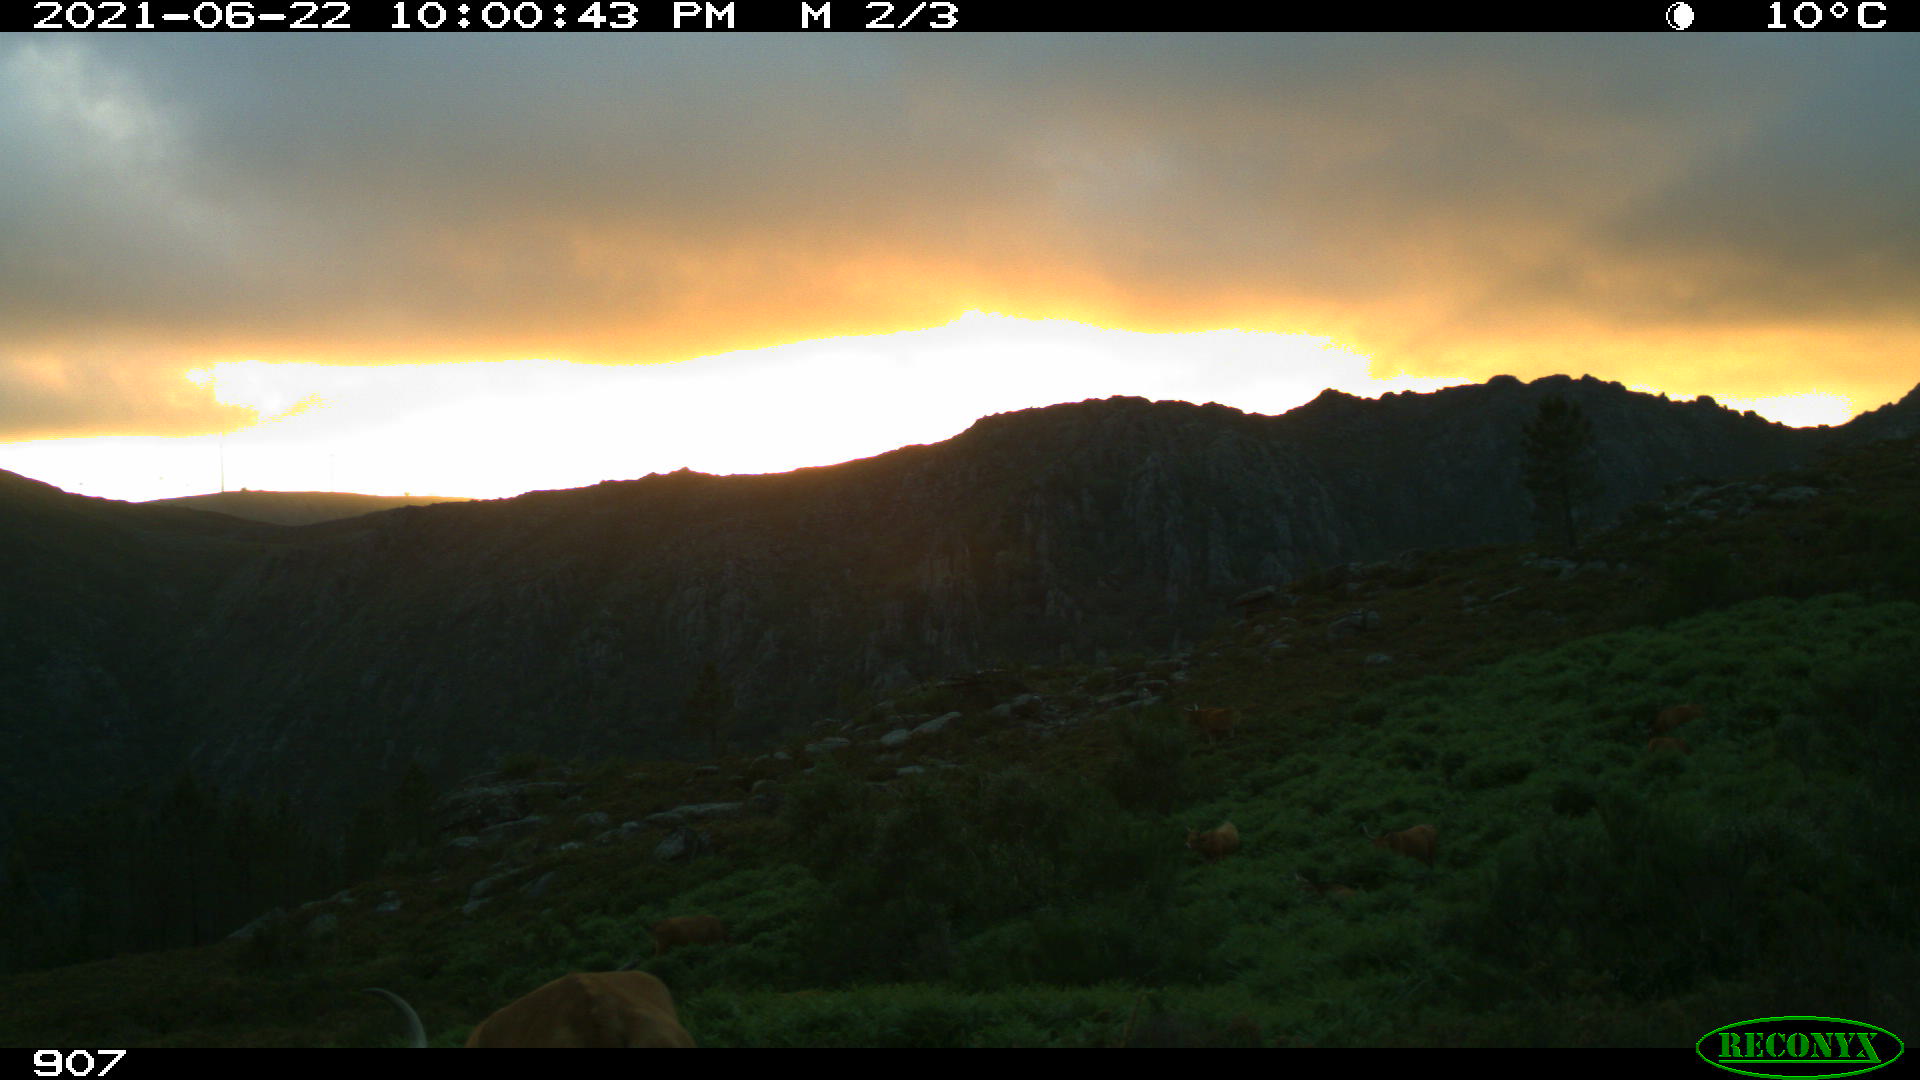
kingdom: Animalia
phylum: Chordata
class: Mammalia
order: Artiodactyla
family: Bovidae
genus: Bos
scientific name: Bos taurus
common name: Domesticated cattle
